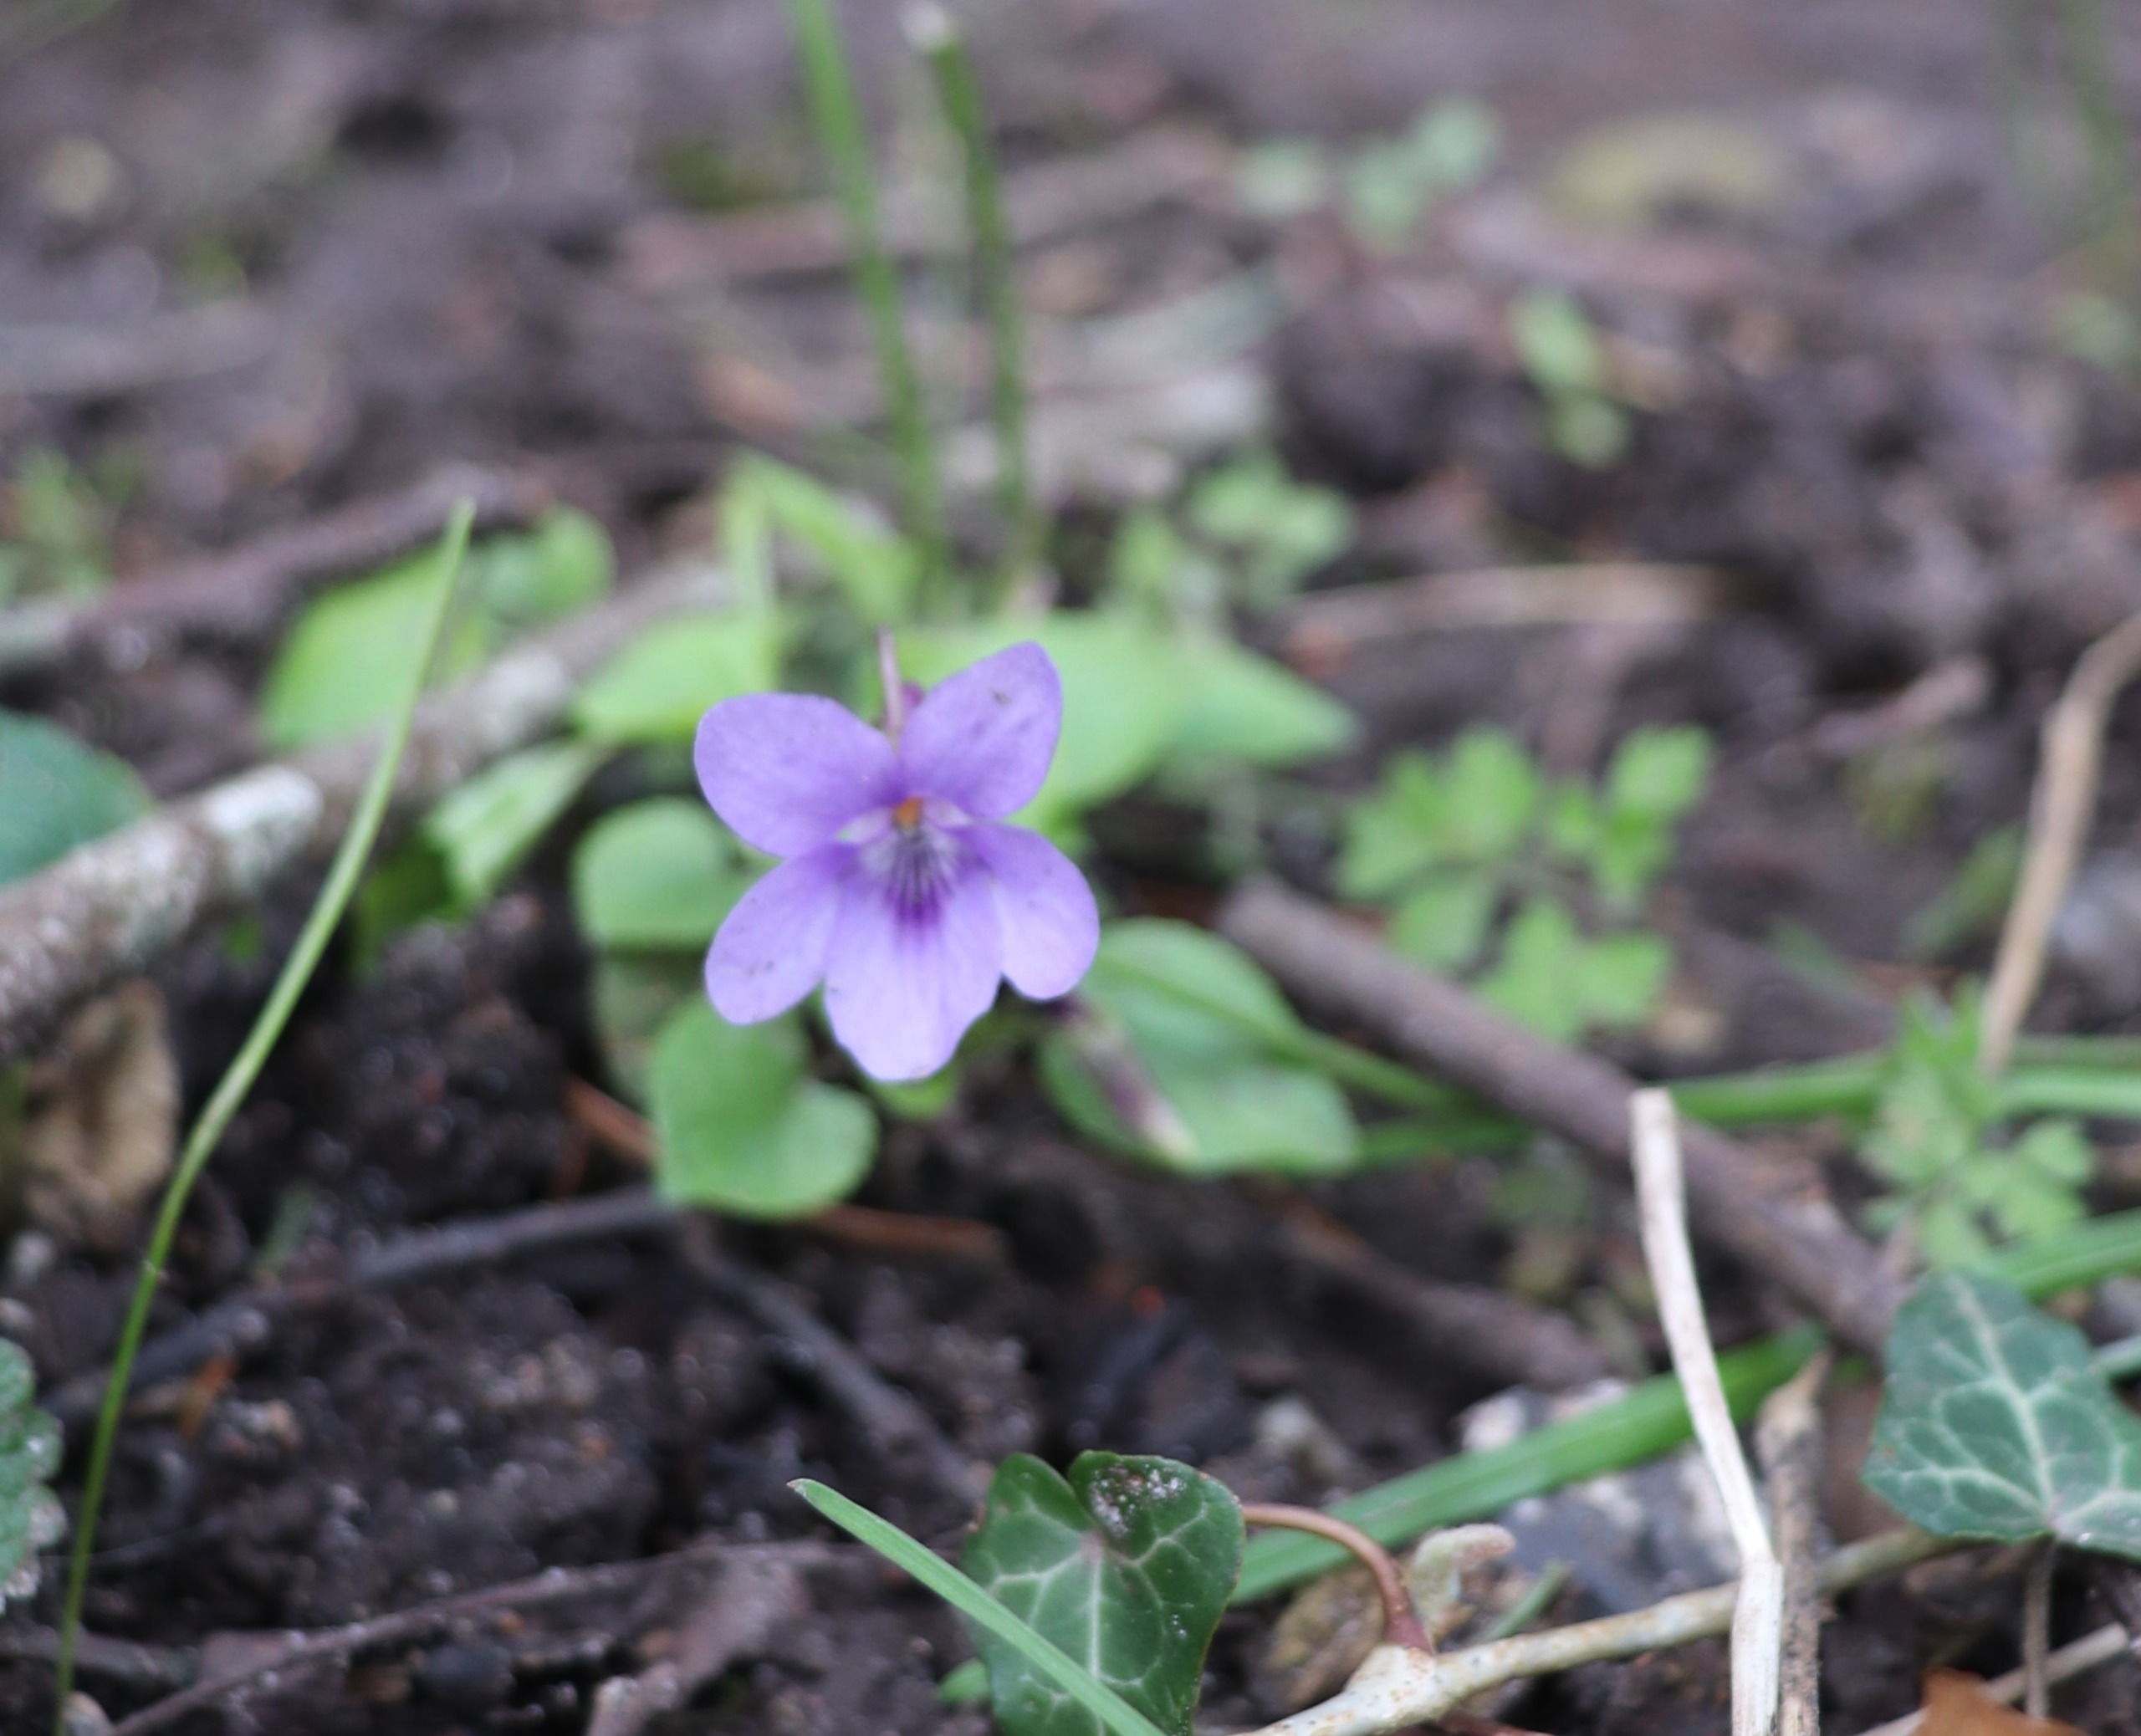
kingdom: Plantae
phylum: Tracheophyta
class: Magnoliopsida
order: Malpighiales
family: Violaceae
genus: Viola
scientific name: Viola reichenbachiana
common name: Skov-viol
